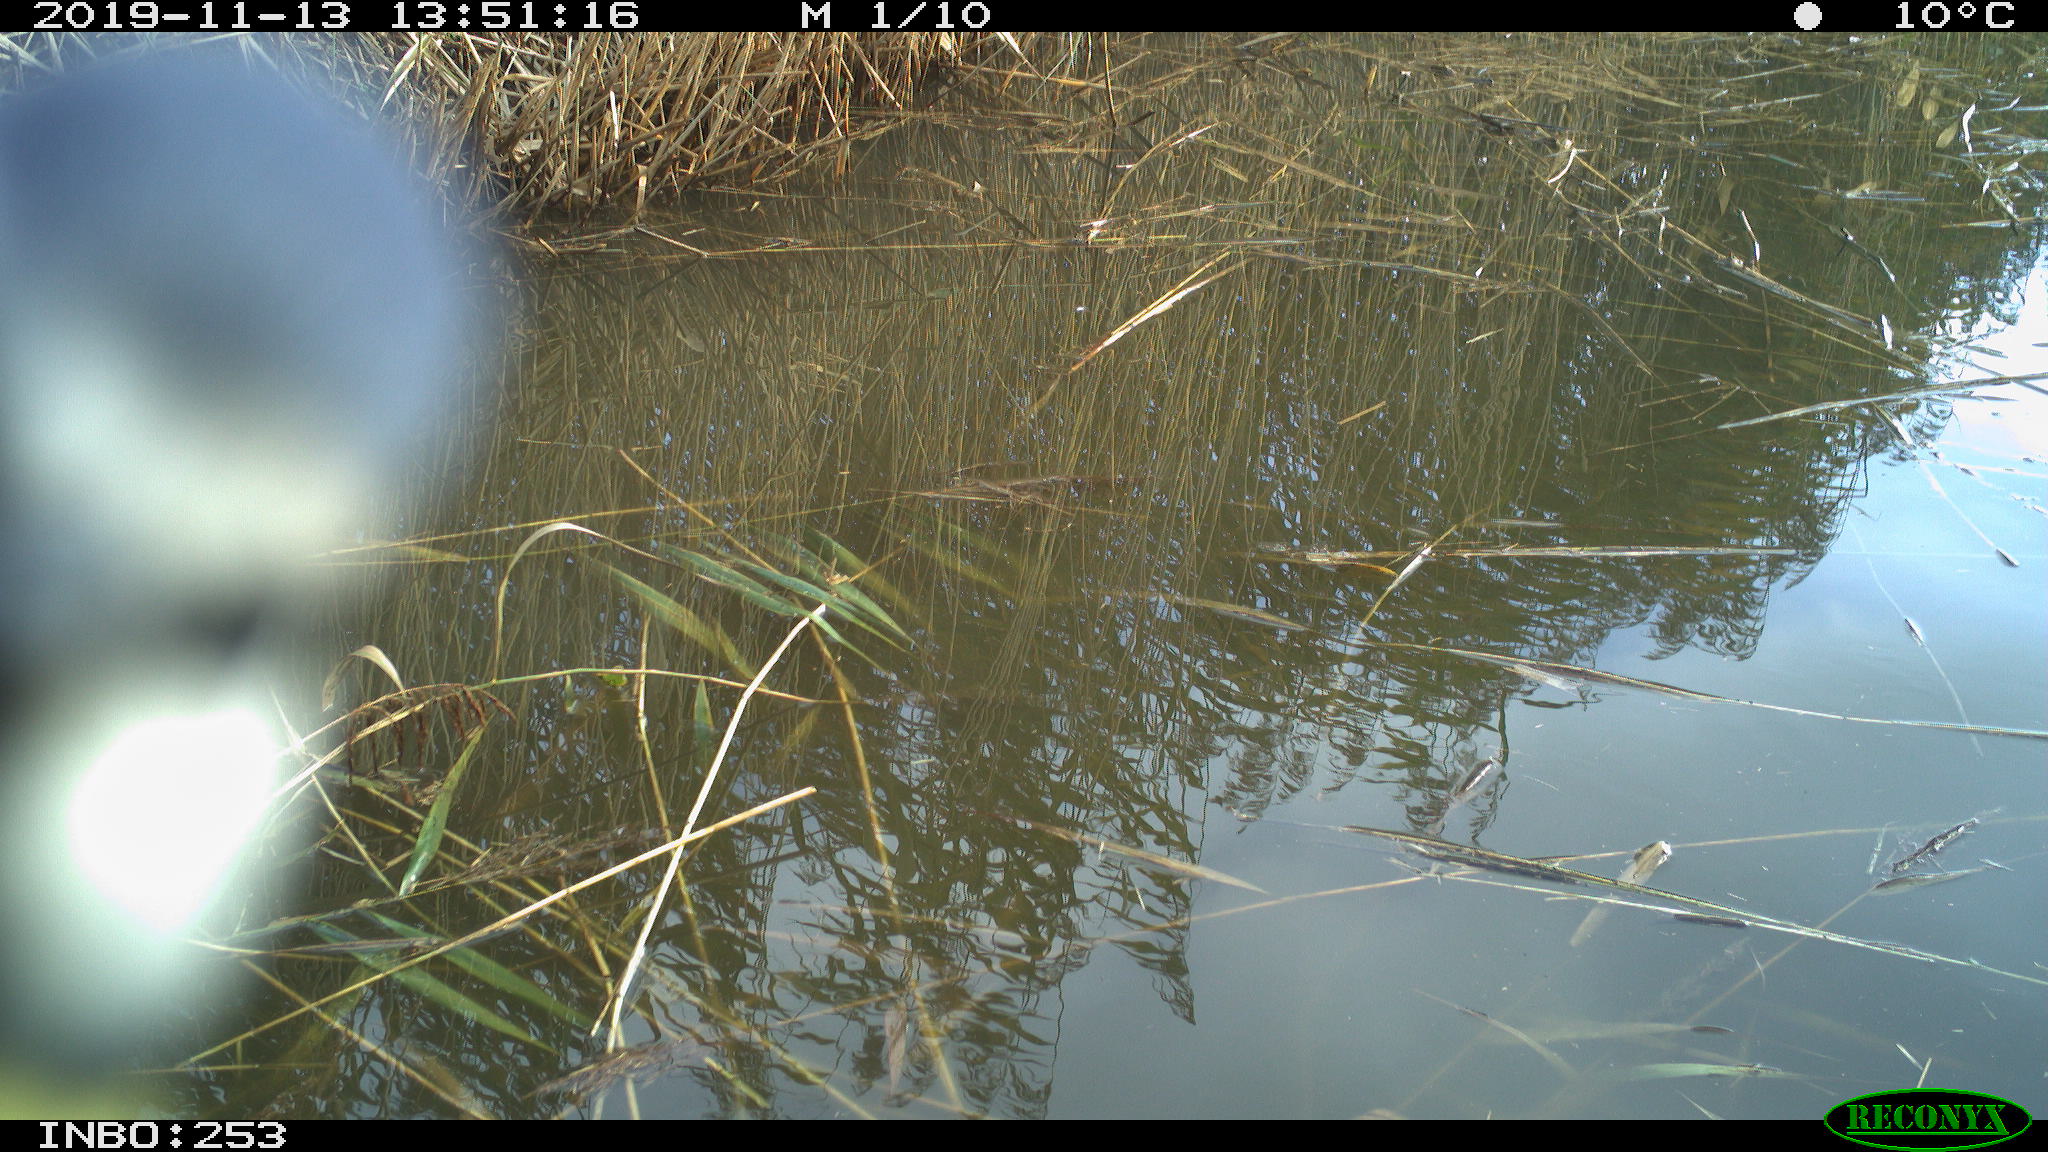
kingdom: Animalia
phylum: Chordata
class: Aves
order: Passeriformes
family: Paridae
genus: Cyanistes
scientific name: Cyanistes caeruleus
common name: Eurasian blue tit
